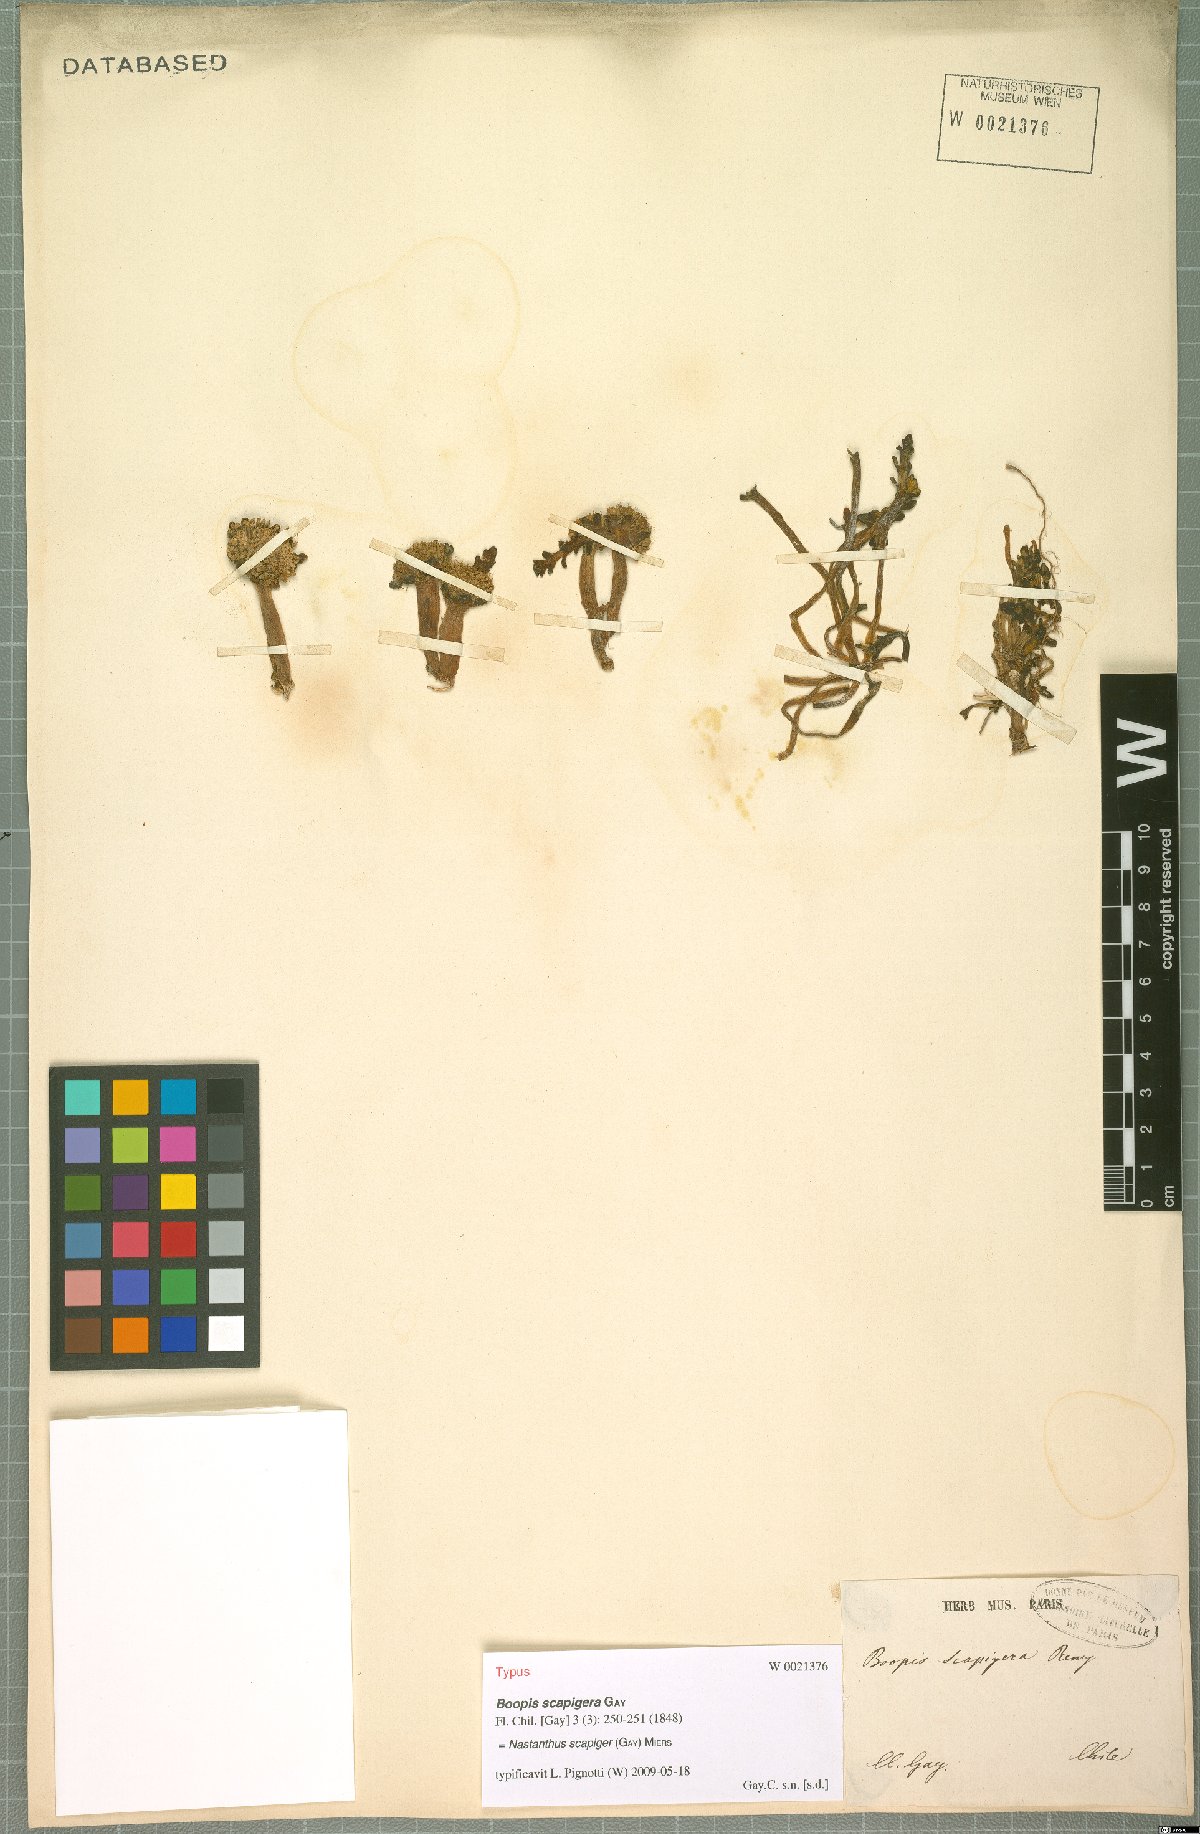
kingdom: Plantae
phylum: Tracheophyta
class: Magnoliopsida
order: Asterales
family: Calyceraceae
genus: Gamocarpha
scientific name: Gamocarpha scapigera
